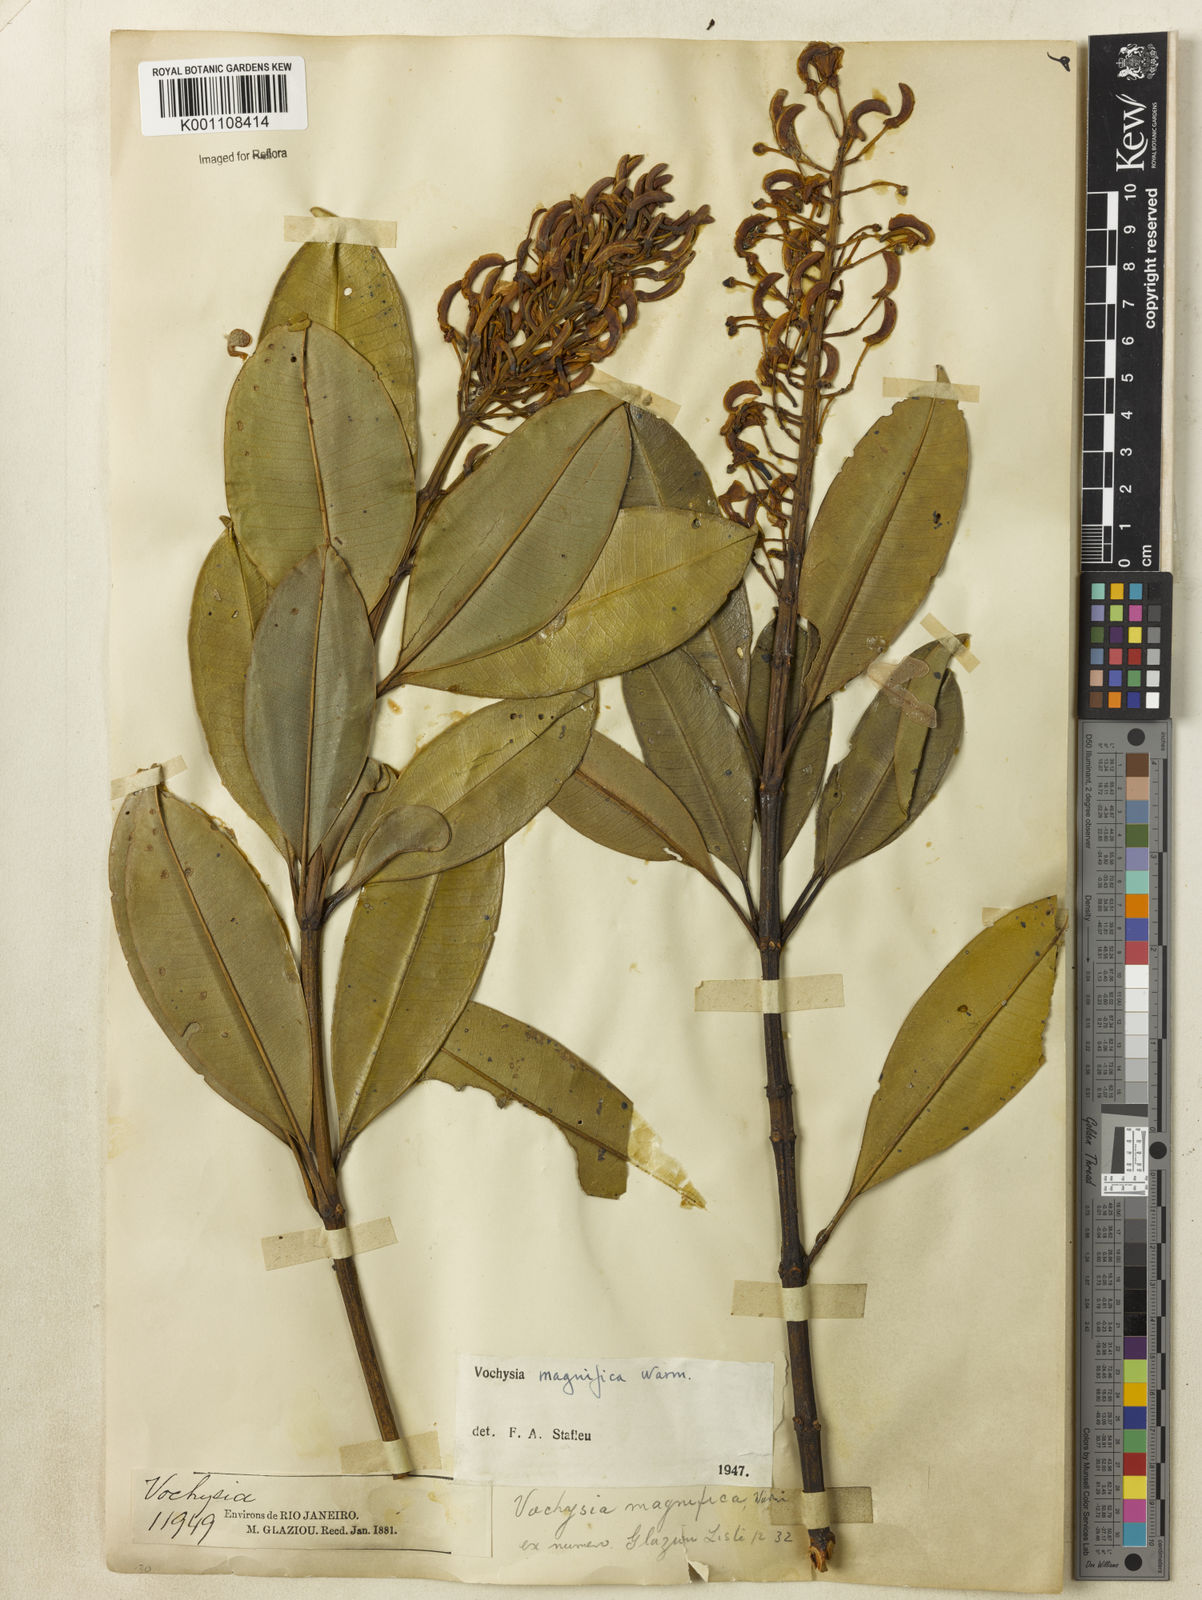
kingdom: Plantae
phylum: Tracheophyta
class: Magnoliopsida
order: Myrtales
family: Vochysiaceae
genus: Vochysia
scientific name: Vochysia magnifica
